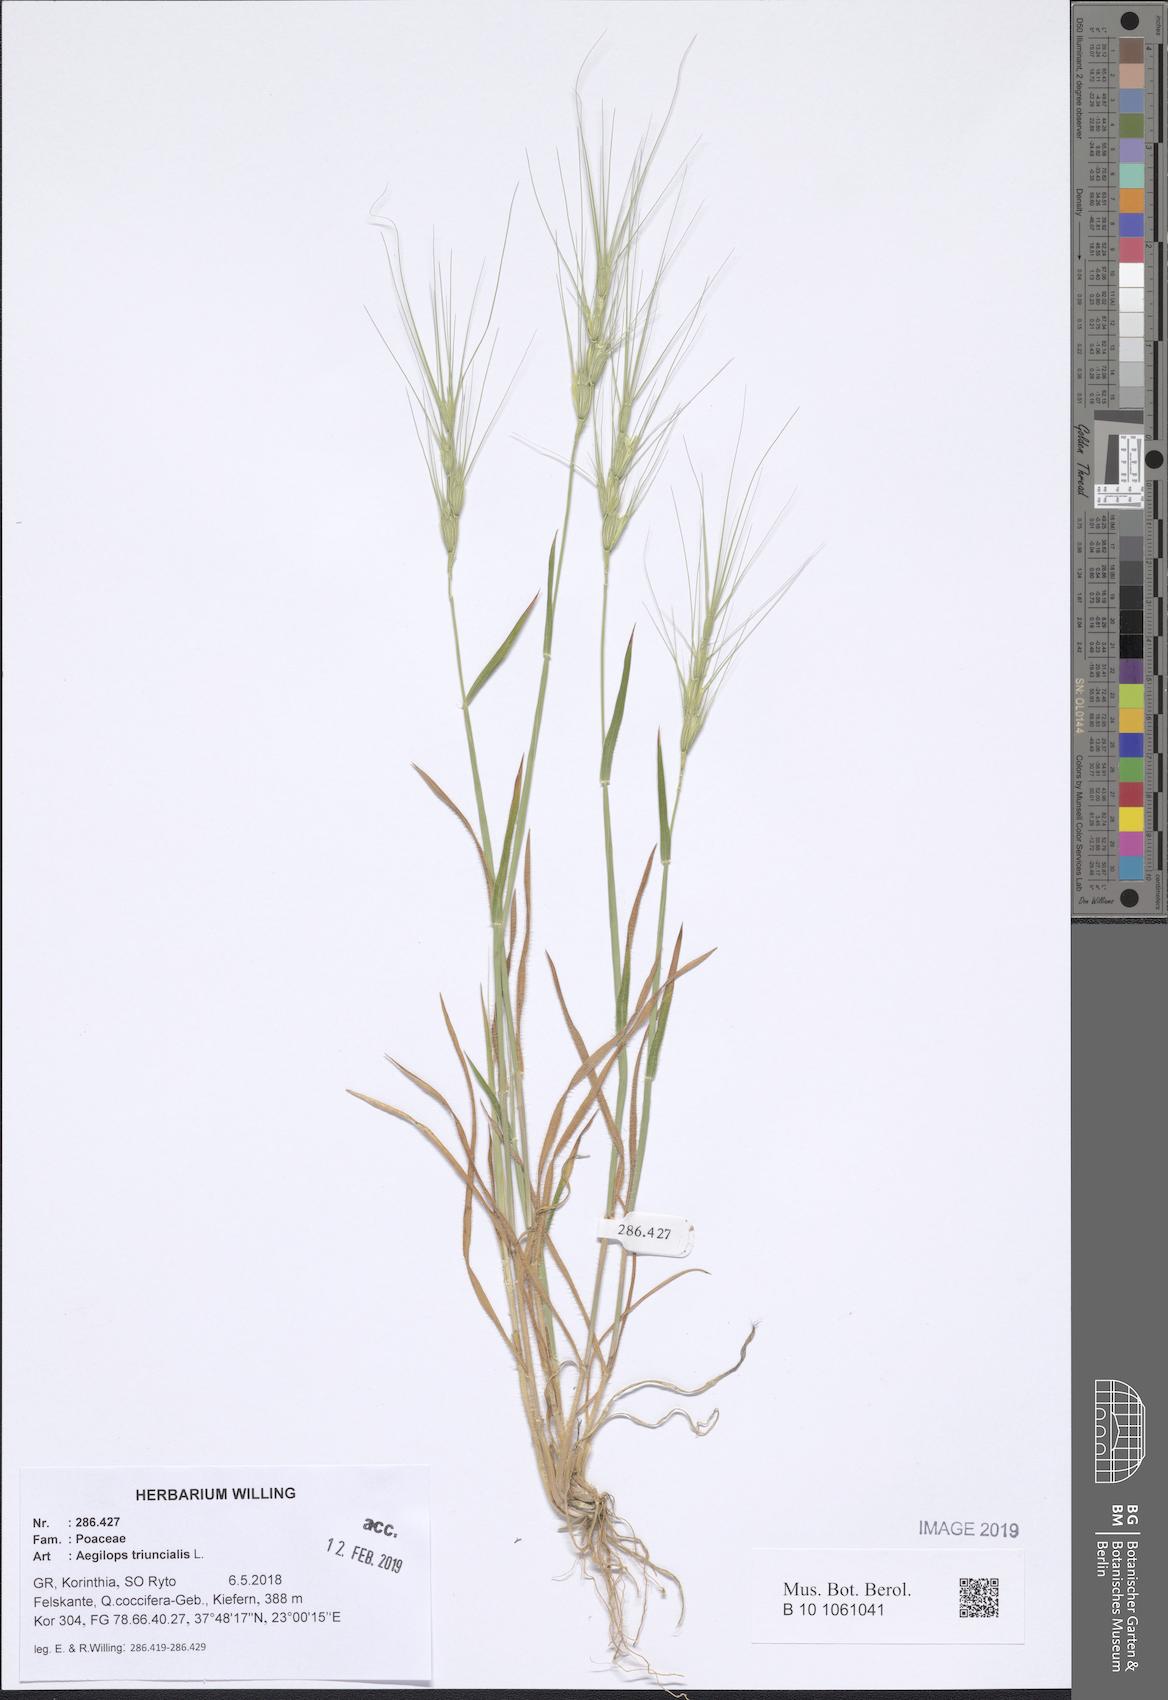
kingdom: Plantae
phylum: Tracheophyta
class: Liliopsida
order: Poales
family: Poaceae
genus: Aegilops
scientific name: Aegilops triuncialis
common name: Barb goat grass
